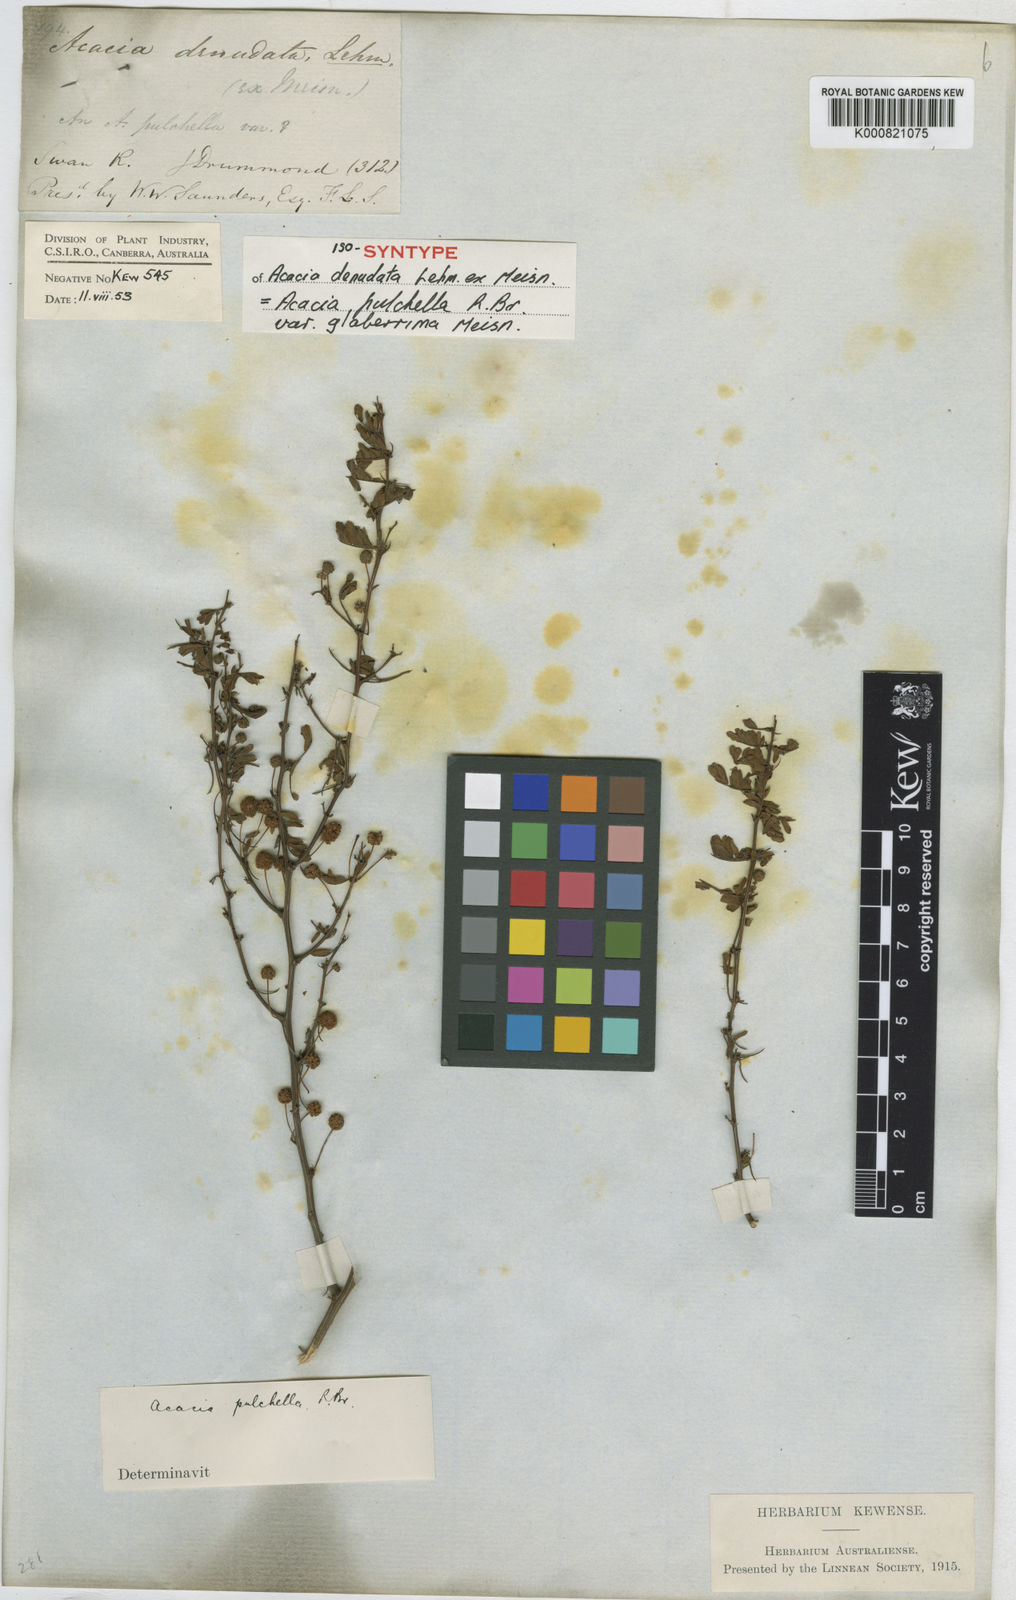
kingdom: Plantae
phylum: Tracheophyta
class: Magnoliopsida
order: Fabales
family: Fabaceae
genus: Acacia
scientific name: Acacia pulchella
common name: Prickly moses
